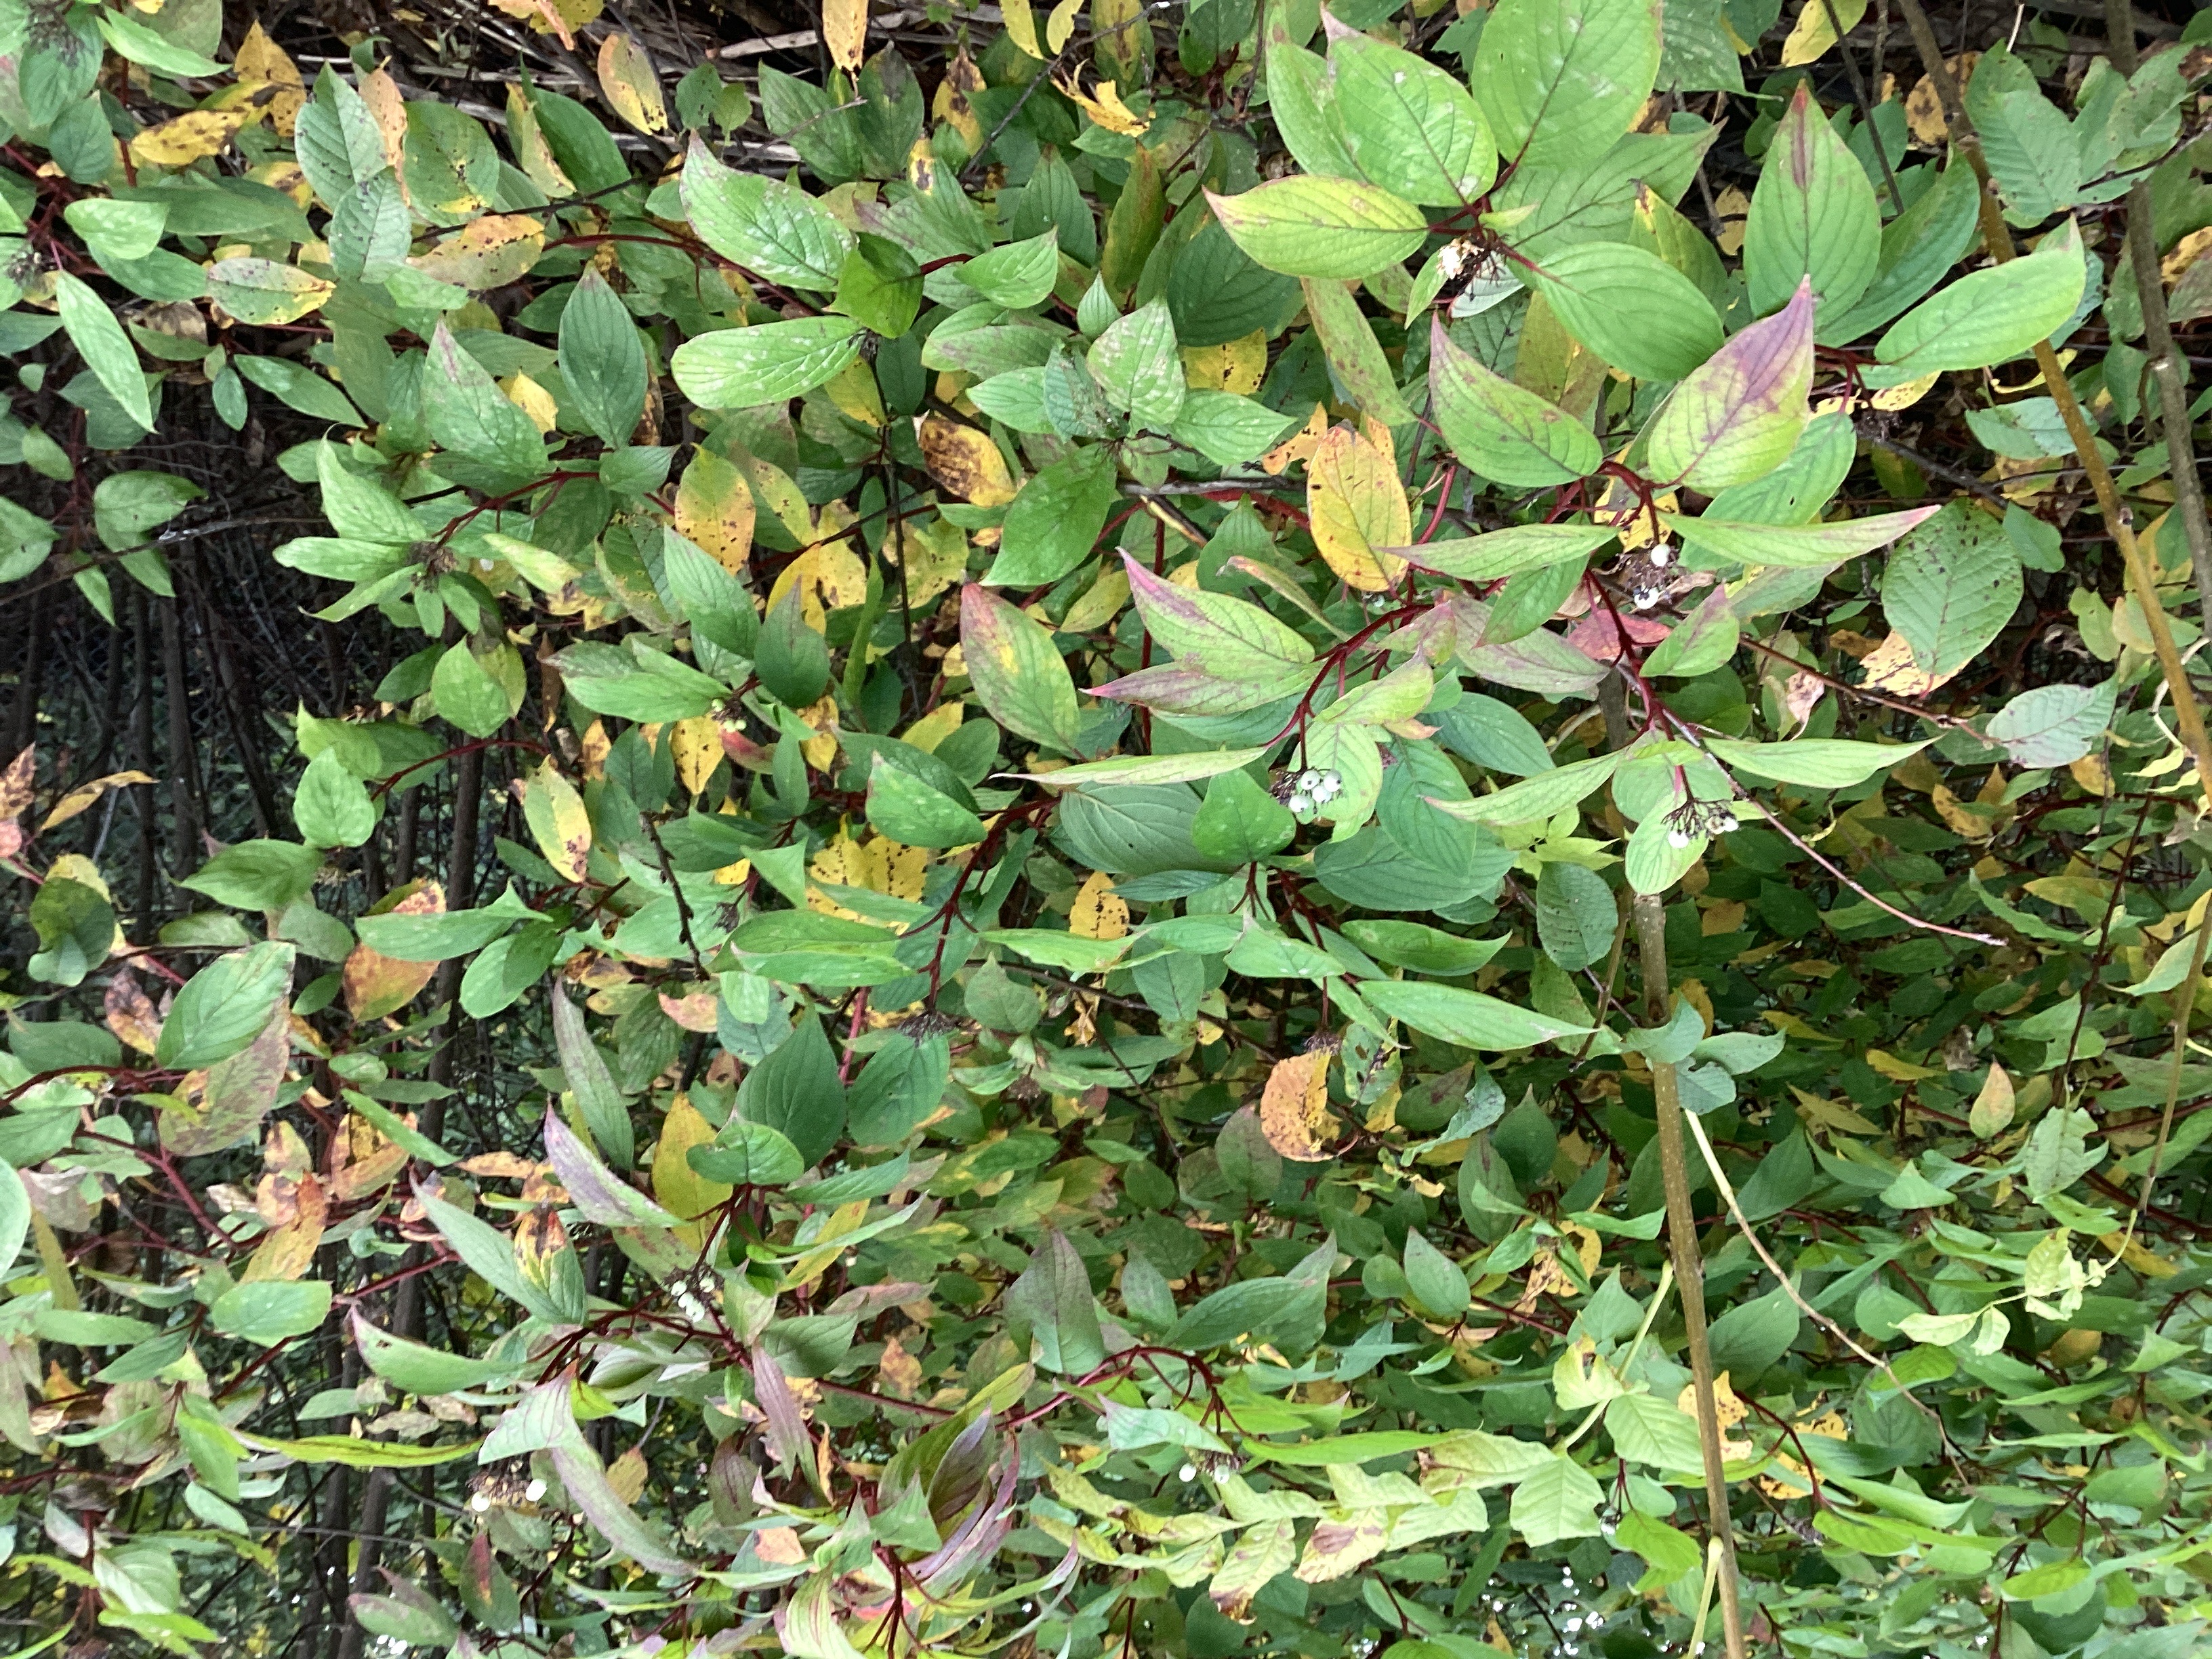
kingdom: Plantae
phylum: Tracheophyta
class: Magnoliopsida
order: Cornales
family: Cornaceae
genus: Cornus
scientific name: Cornus alba
